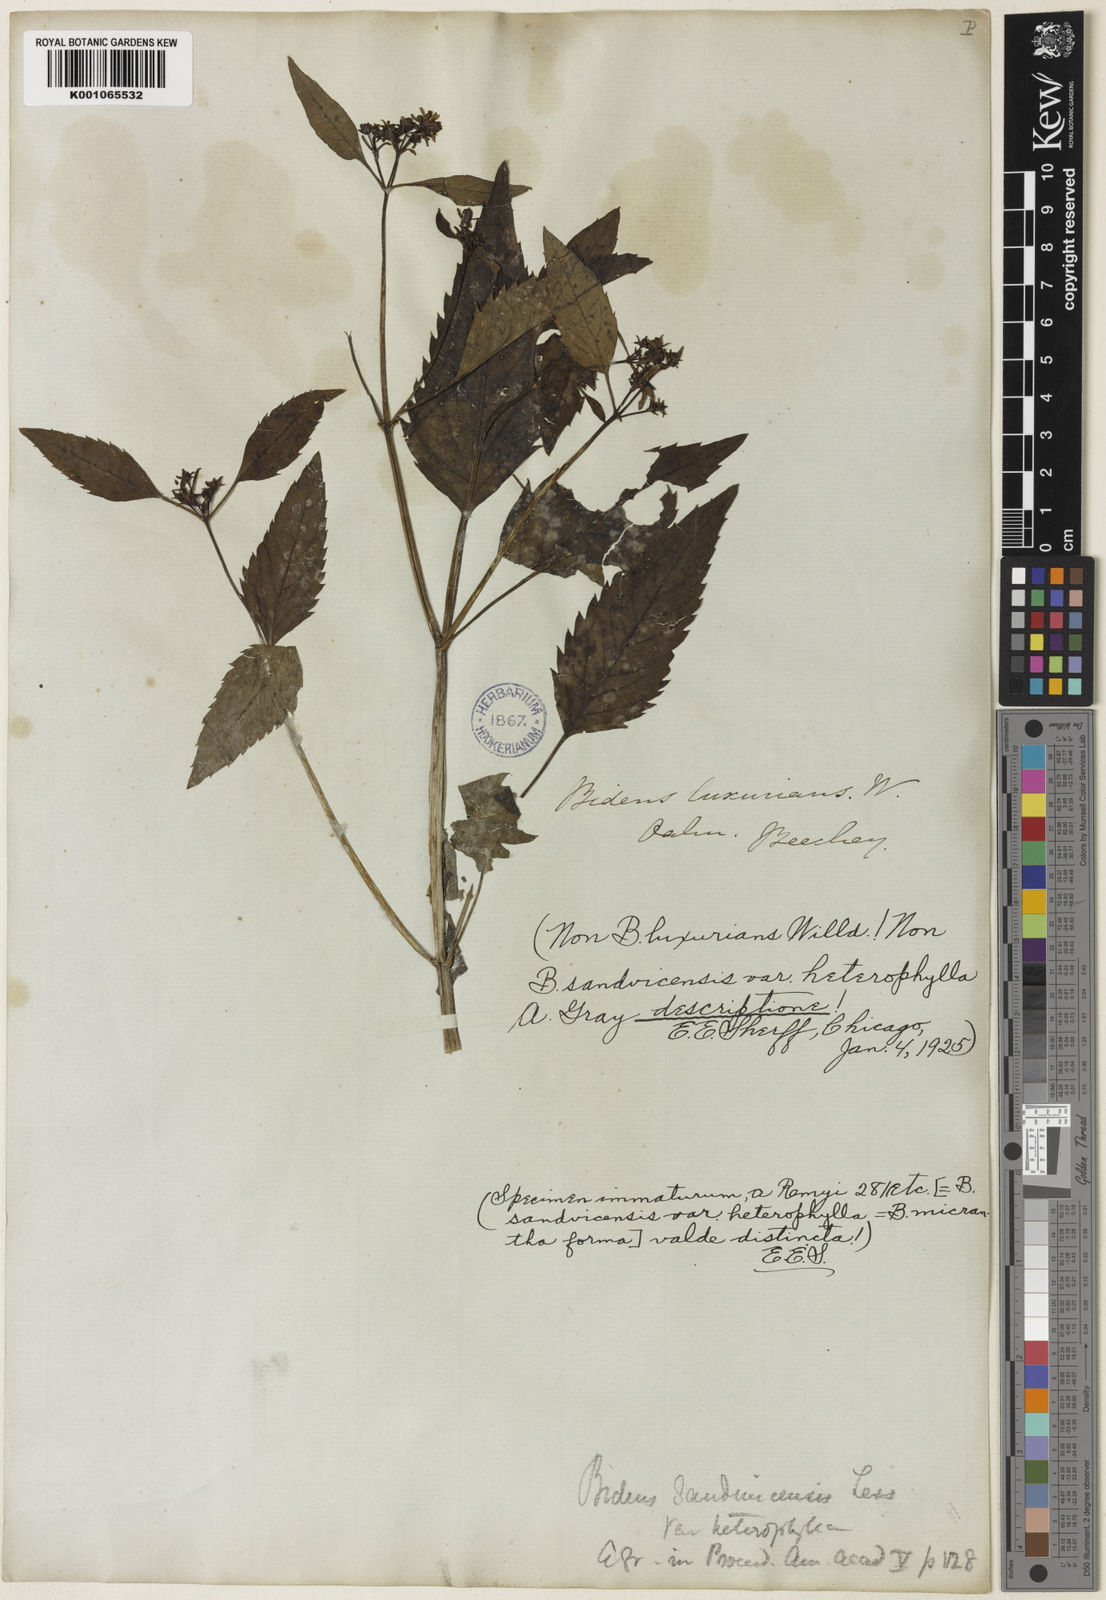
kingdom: Plantae
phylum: Tracheophyta
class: Magnoliopsida
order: Asterales
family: Asteraceae
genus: Bidens
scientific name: Bidens
